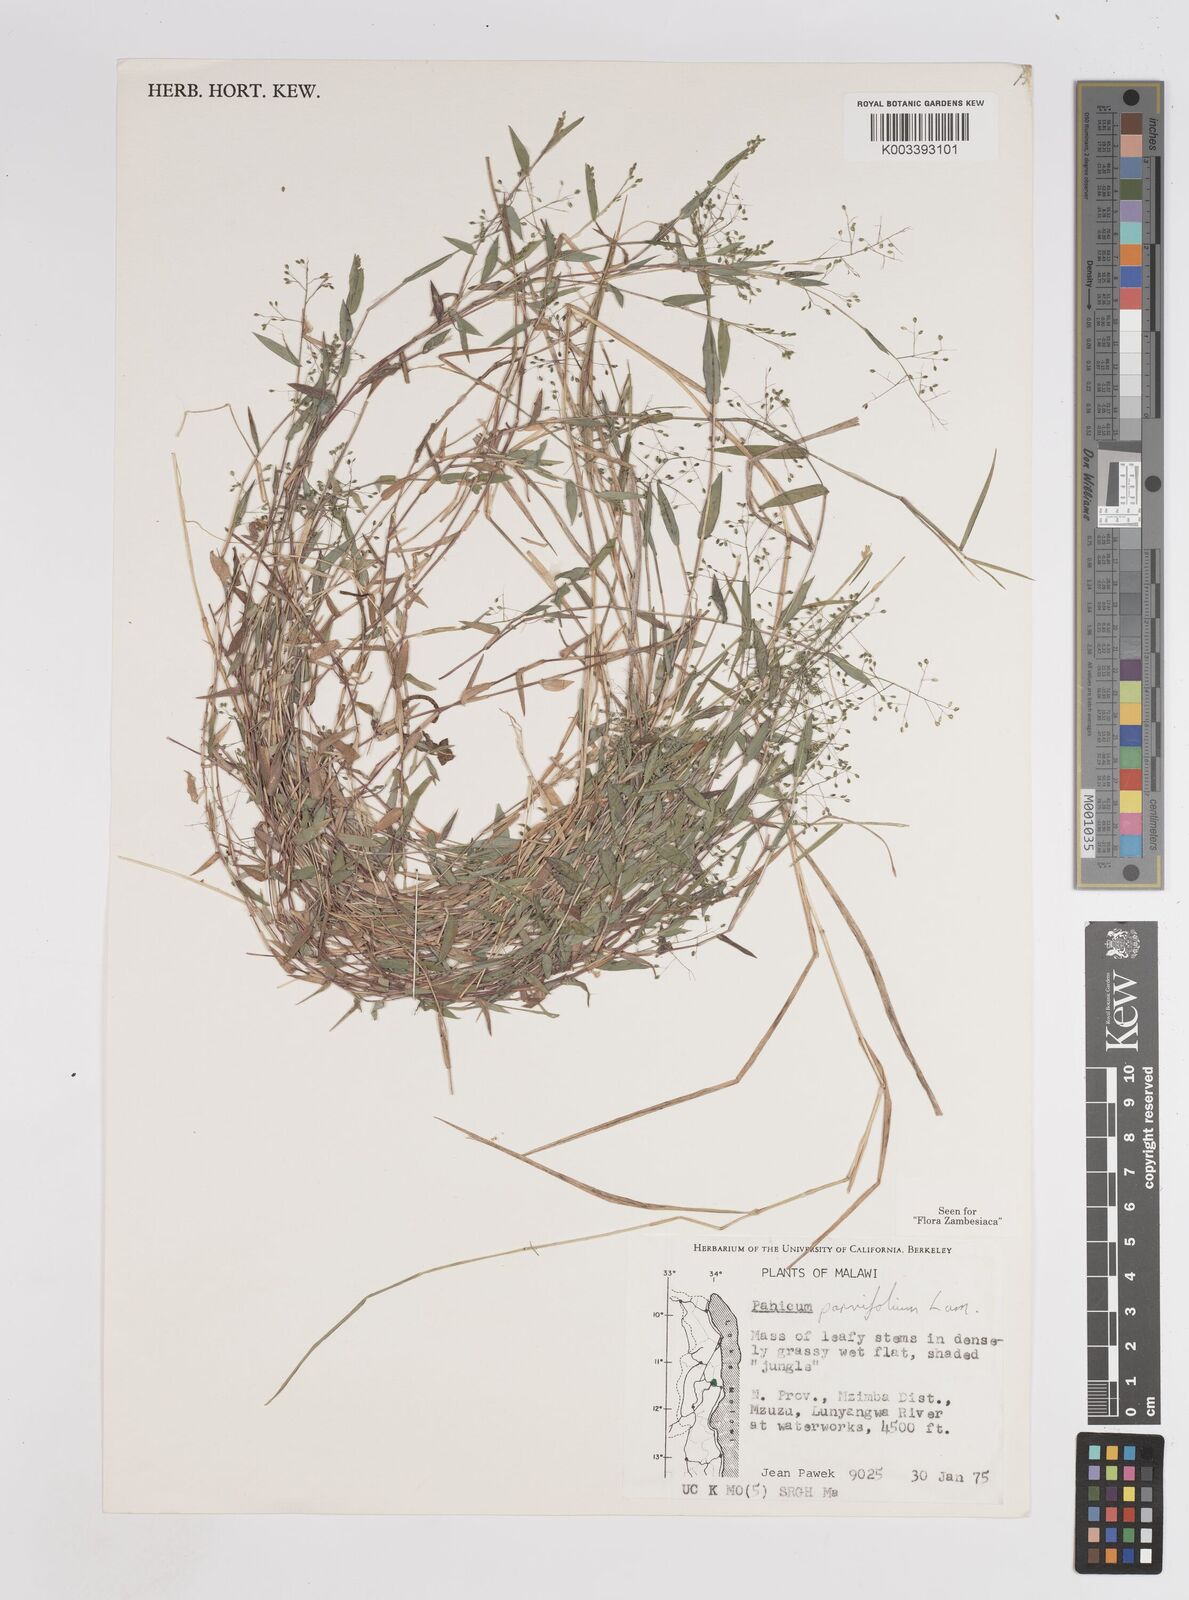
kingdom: Plantae
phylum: Tracheophyta
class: Liliopsida
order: Poales
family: Poaceae
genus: Trichanthecium
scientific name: Trichanthecium parvifolium
